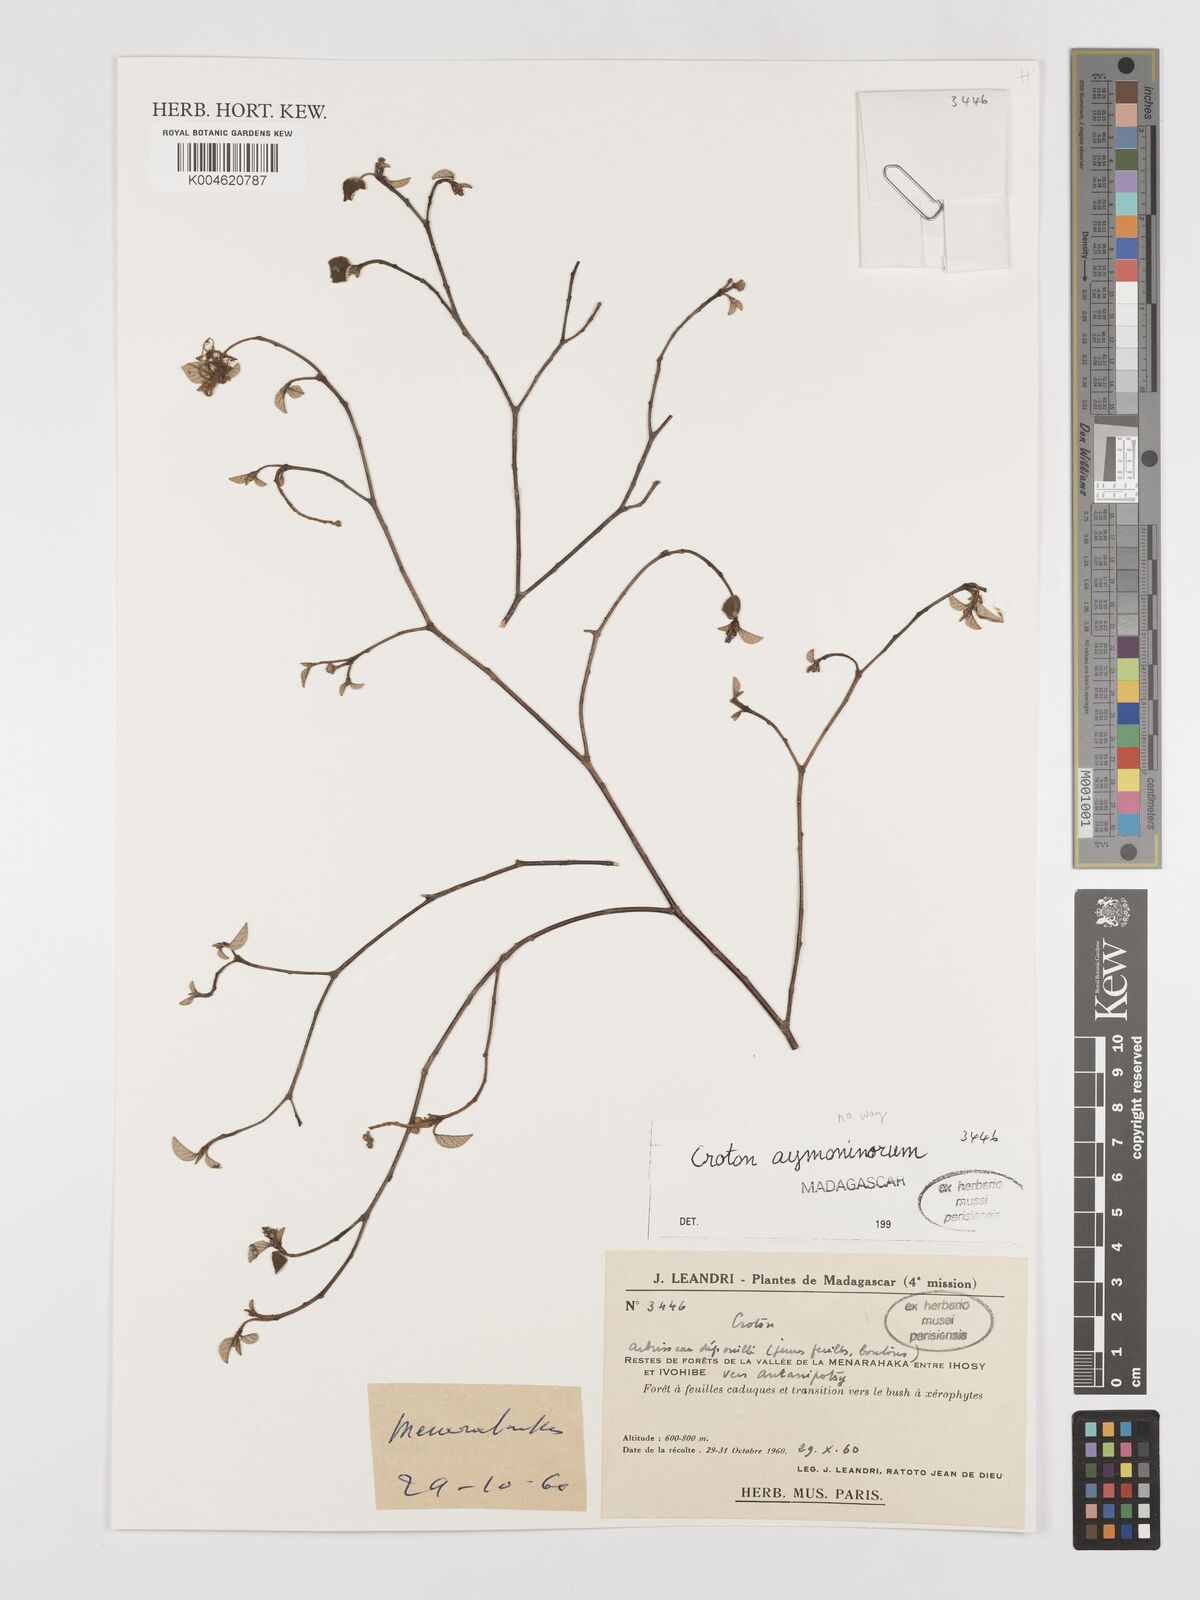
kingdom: Plantae
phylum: Tracheophyta
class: Magnoliopsida
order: Malpighiales
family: Euphorbiaceae
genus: Croton
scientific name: Croton
